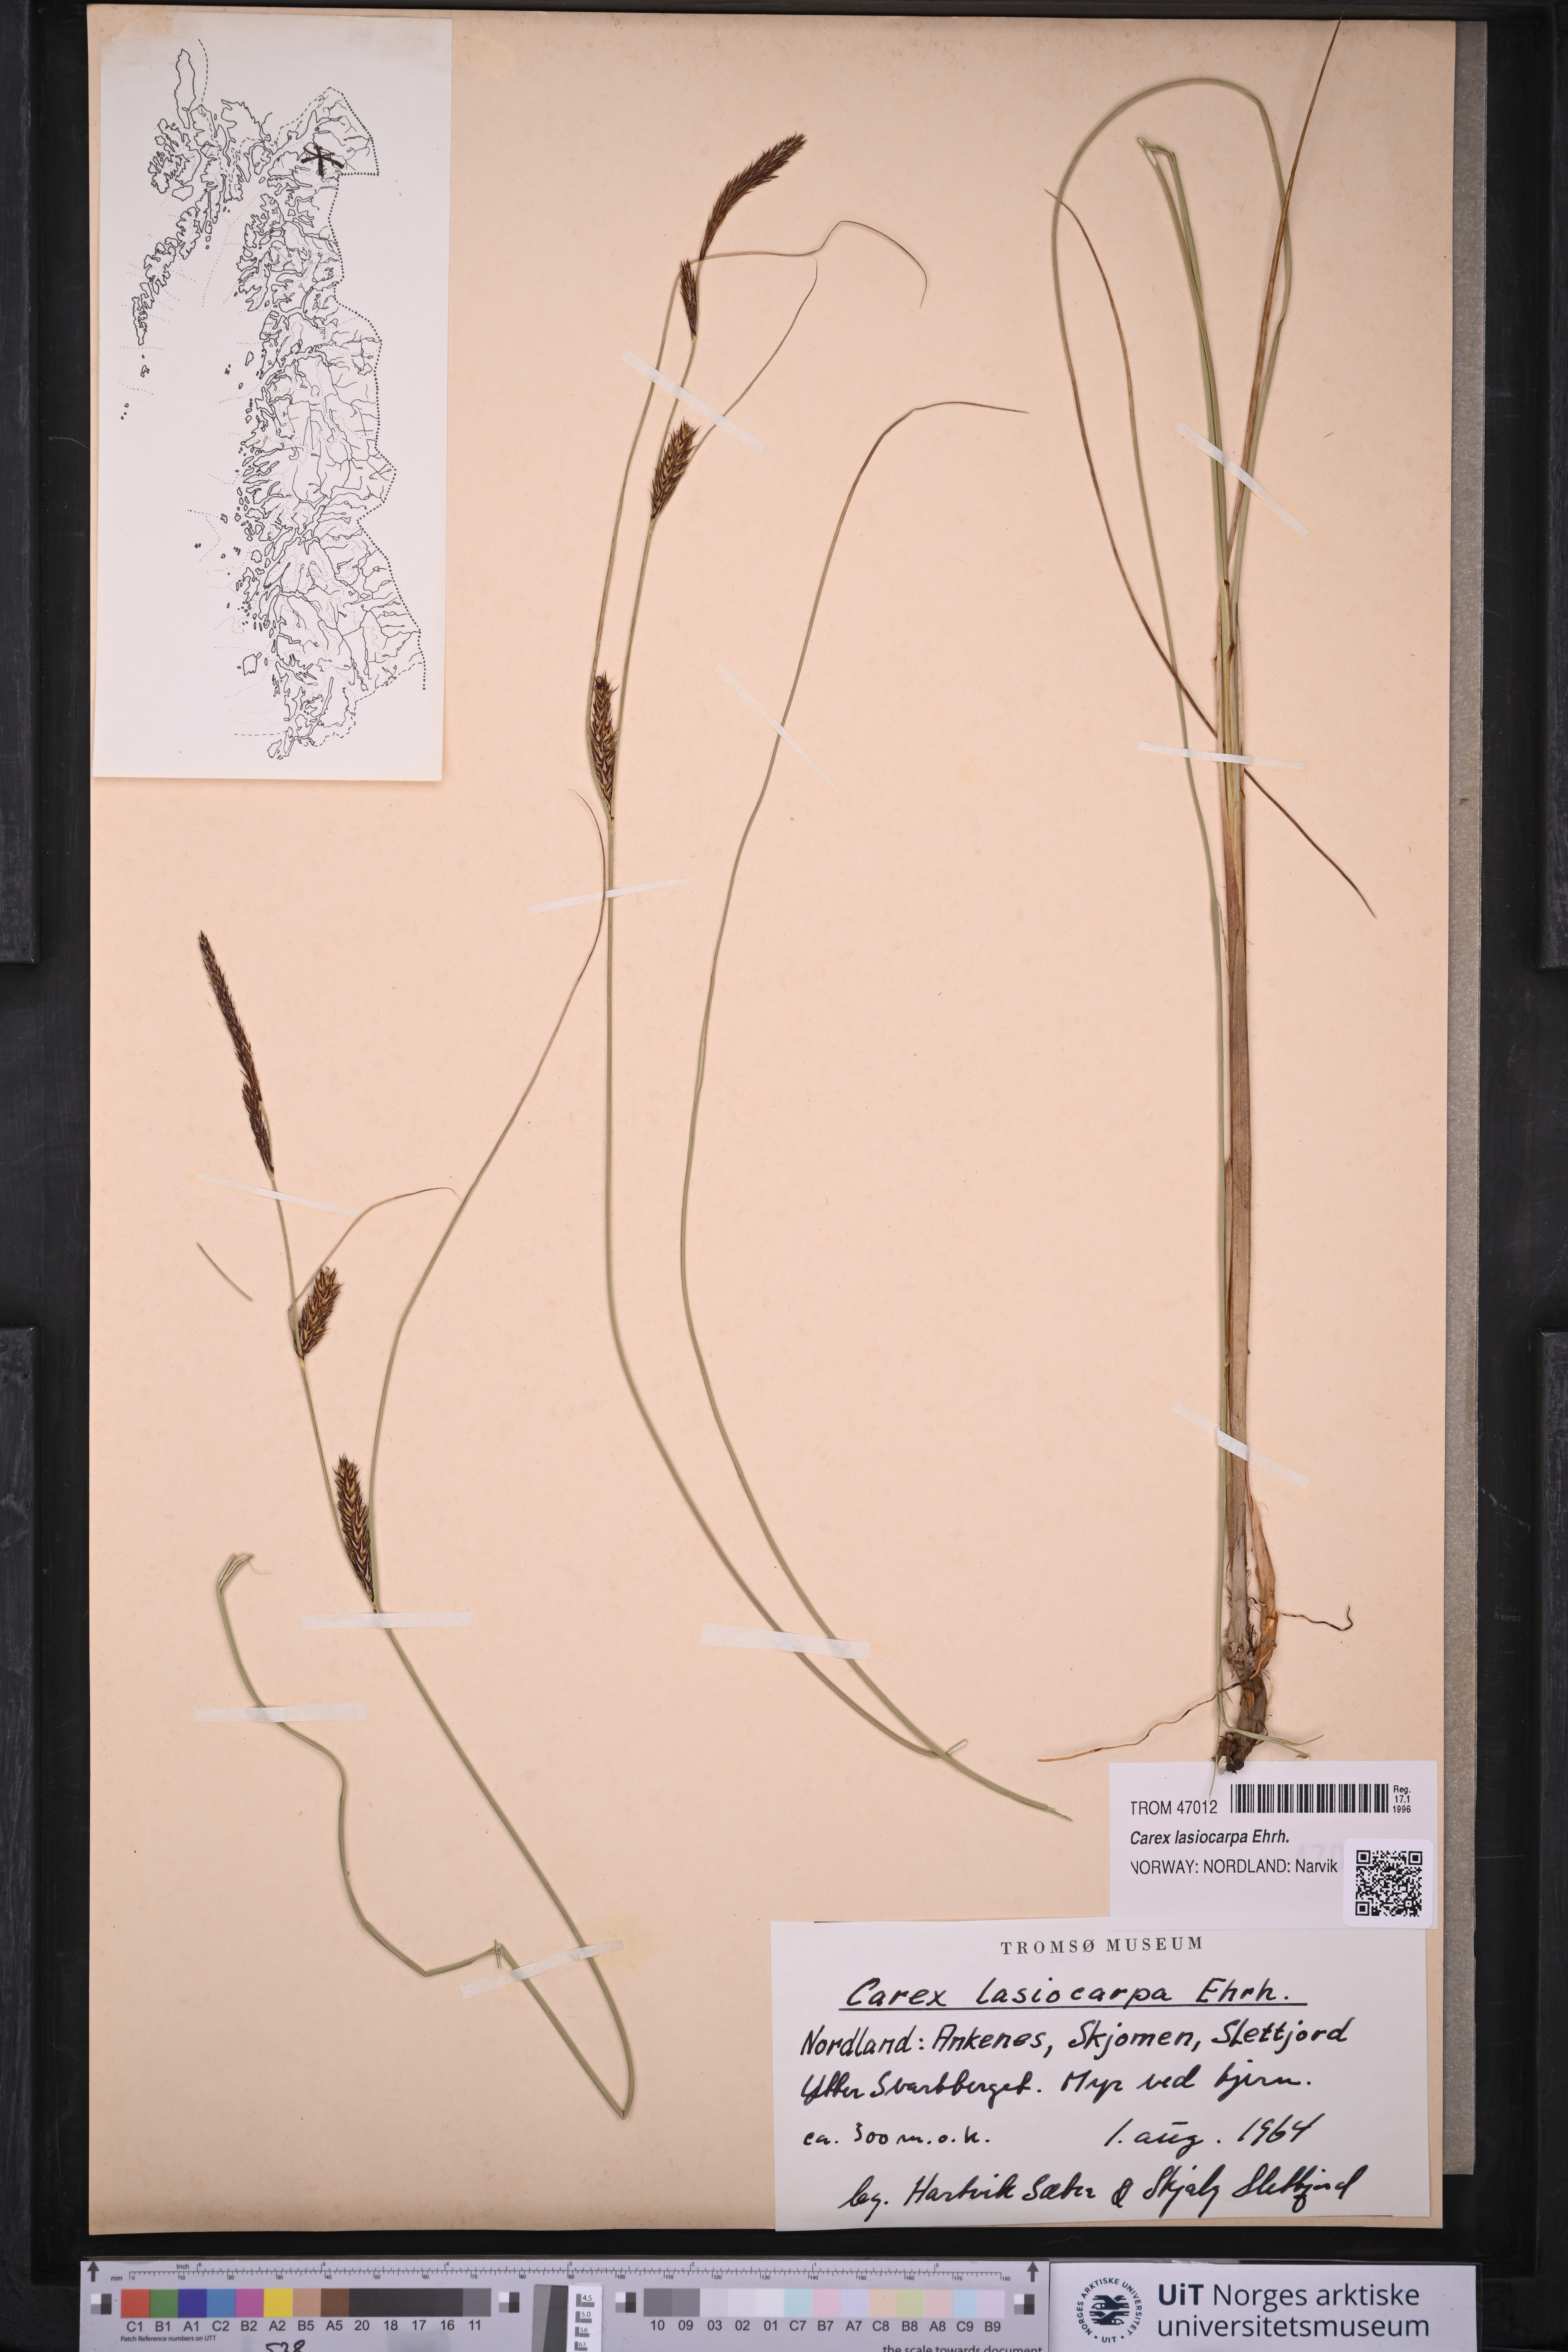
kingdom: Plantae
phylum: Tracheophyta
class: Liliopsida
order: Poales
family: Cyperaceae
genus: Carex
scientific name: Carex lasiocarpa
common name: Slender sedge
